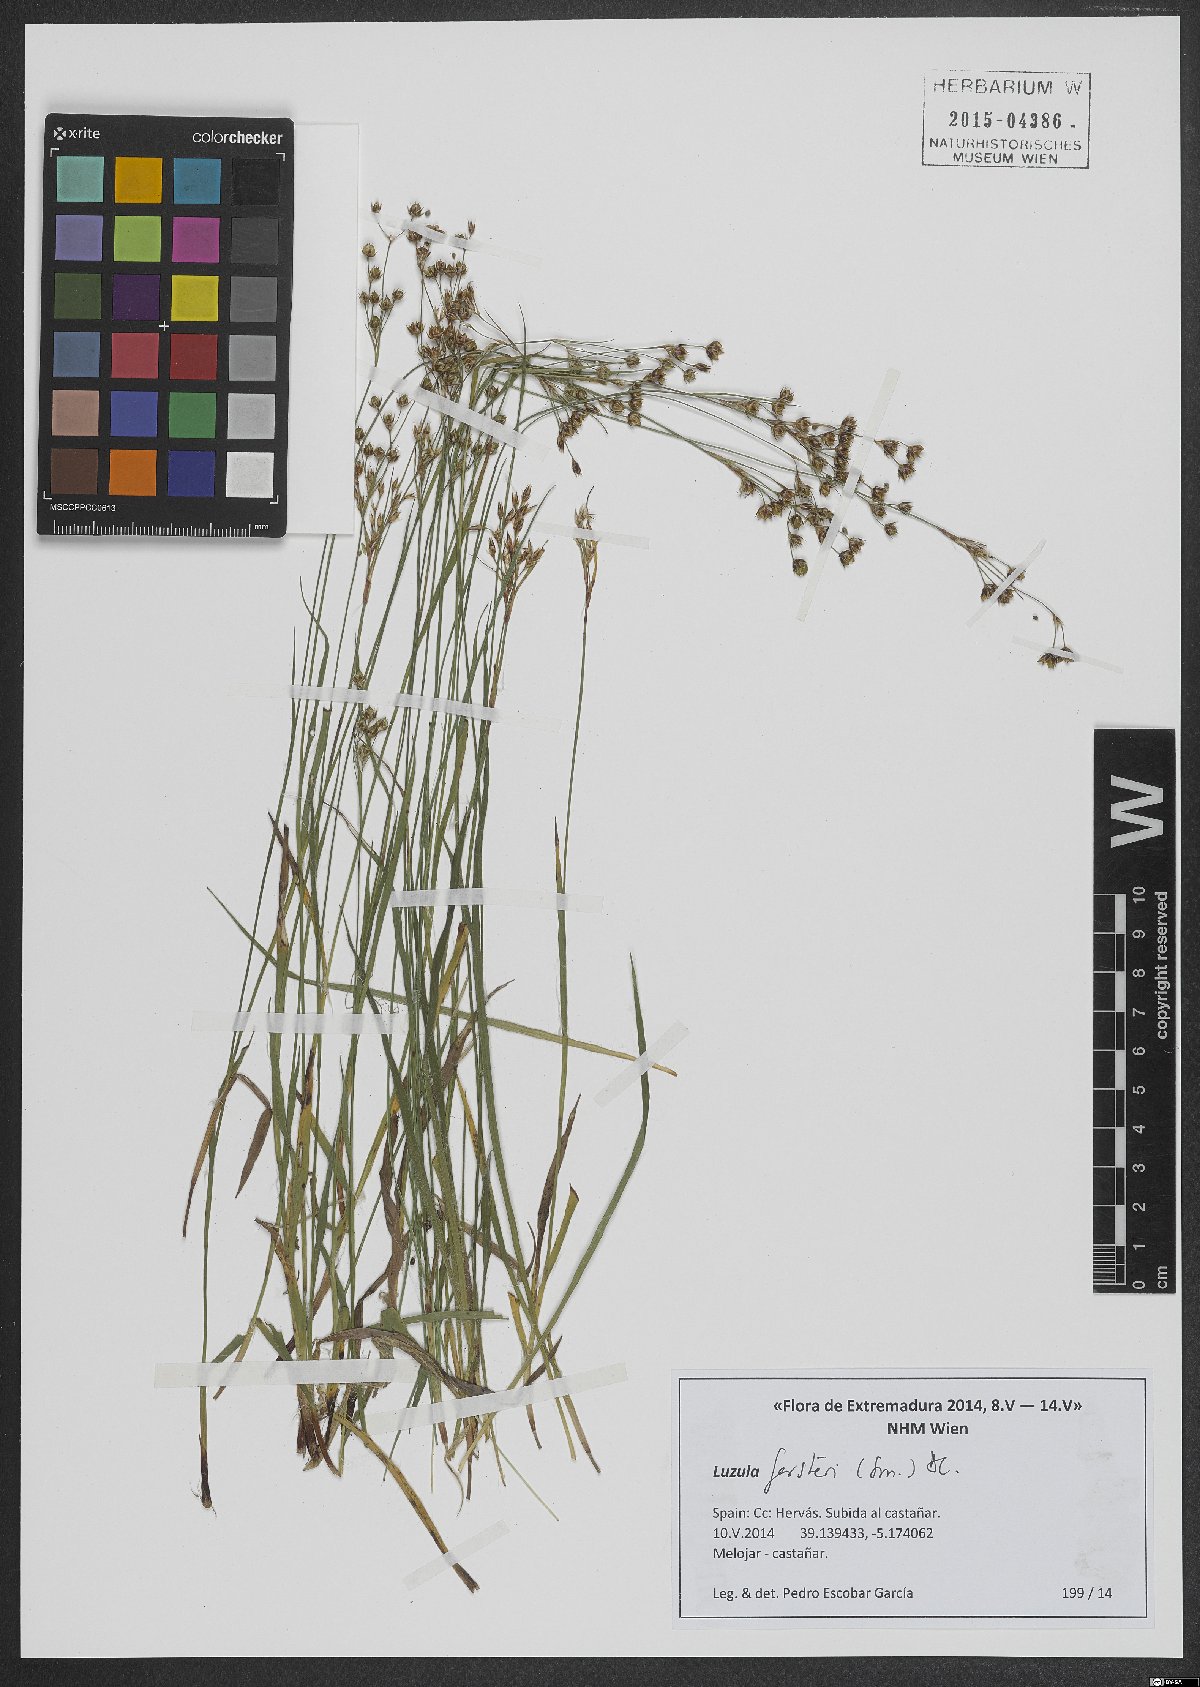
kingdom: Plantae
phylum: Tracheophyta
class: Liliopsida
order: Poales
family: Juncaceae
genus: Luzula
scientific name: Luzula forsteri
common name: Southern wood-rush
